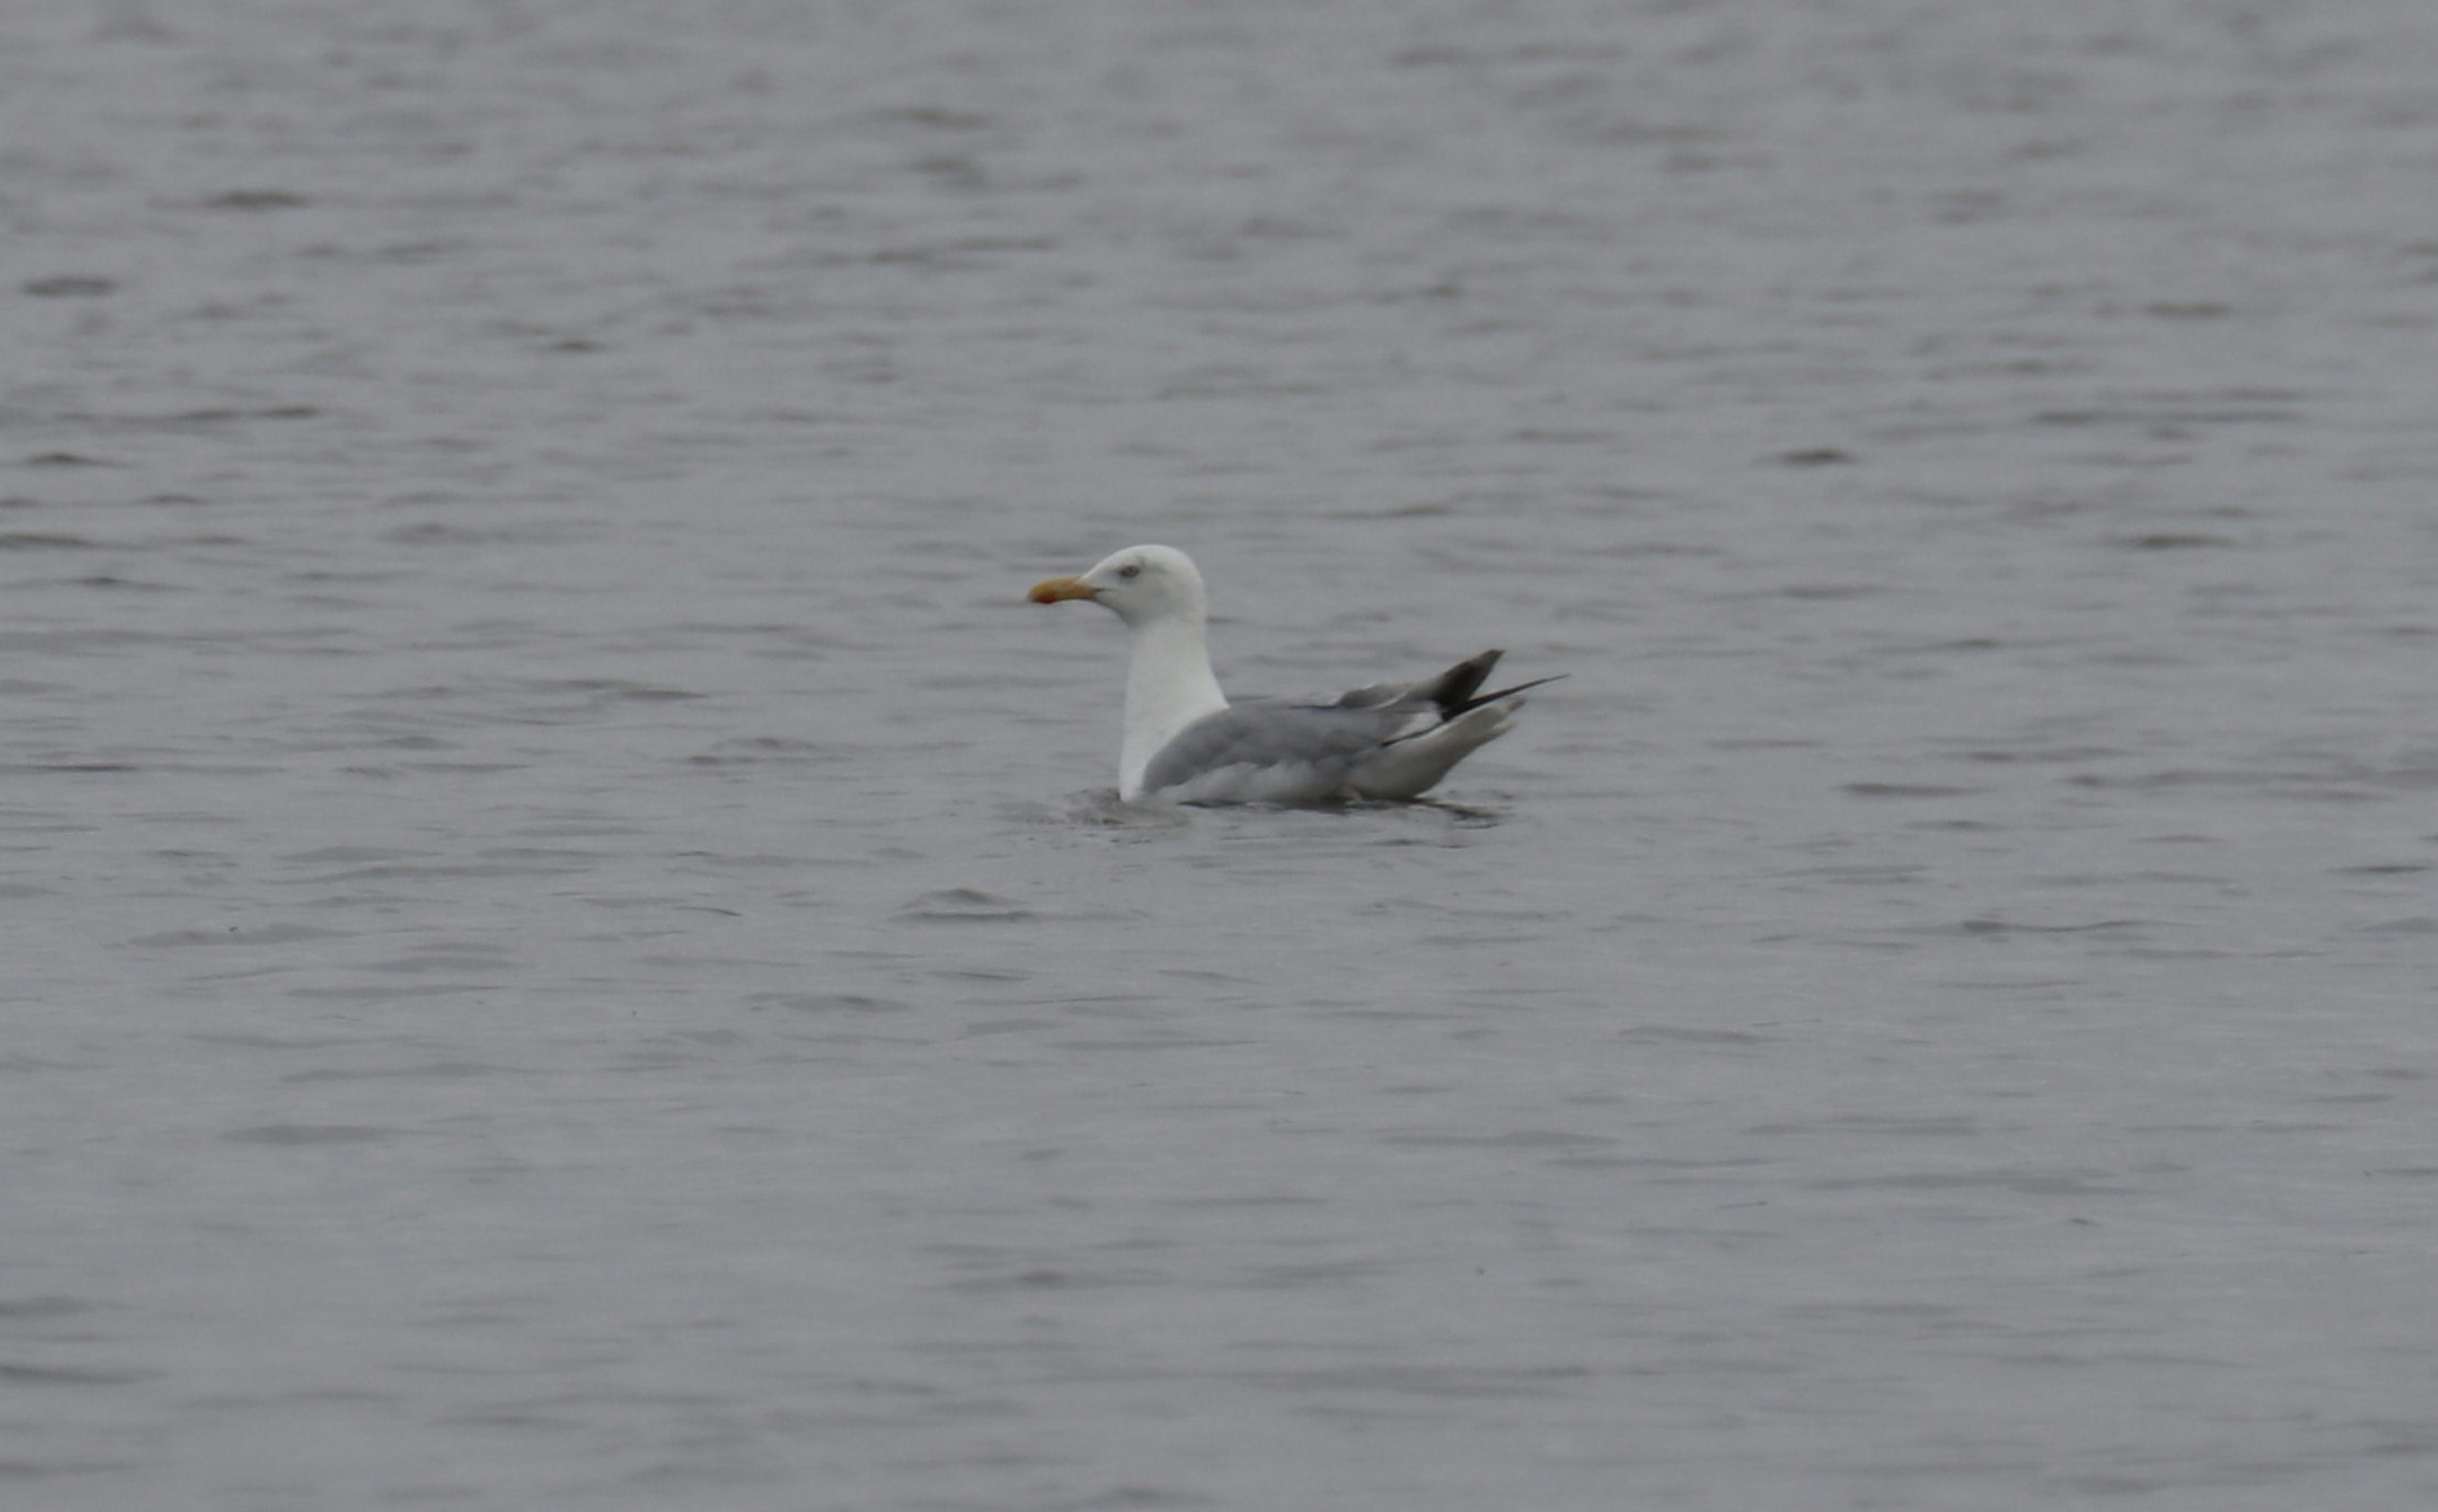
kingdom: Animalia
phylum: Chordata
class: Aves
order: Charadriiformes
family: Laridae
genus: Larus
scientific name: Larus argentatus
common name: Sølvmåge
